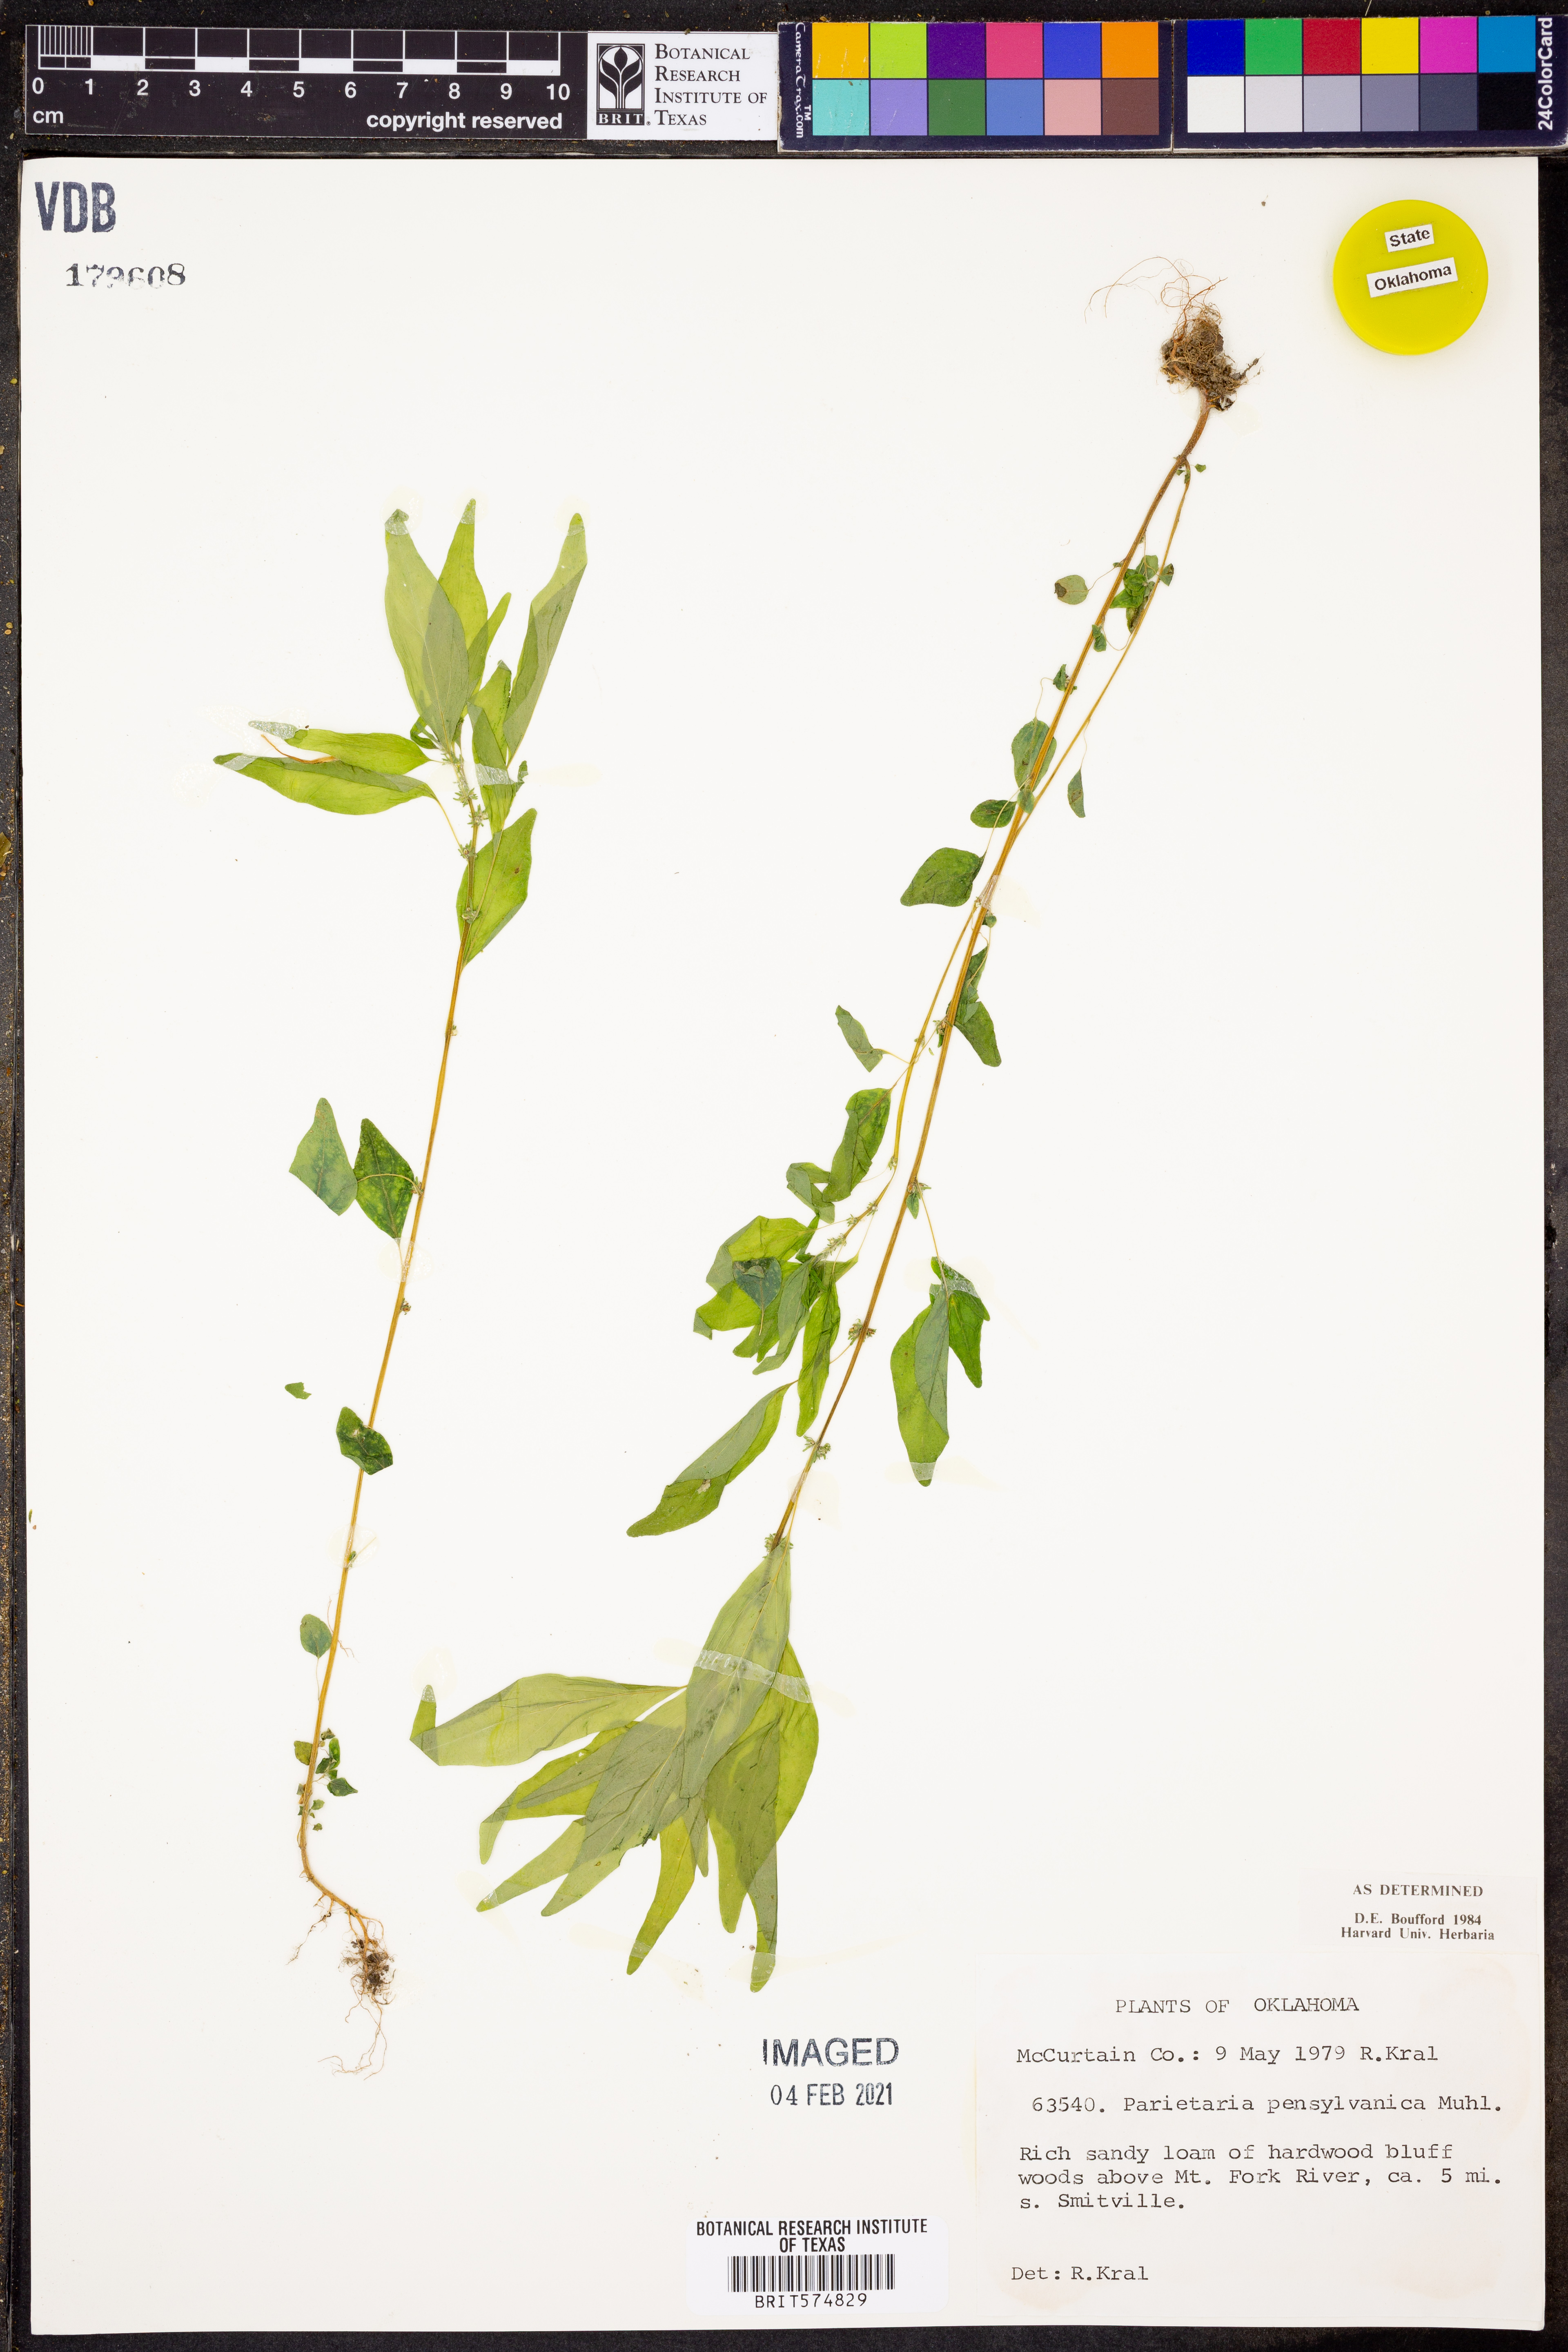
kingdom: Plantae
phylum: Tracheophyta
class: Magnoliopsida
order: Rosales
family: Urticaceae
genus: Parietaria
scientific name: Parietaria pensylvanica
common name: Pennsylvania pellitory
